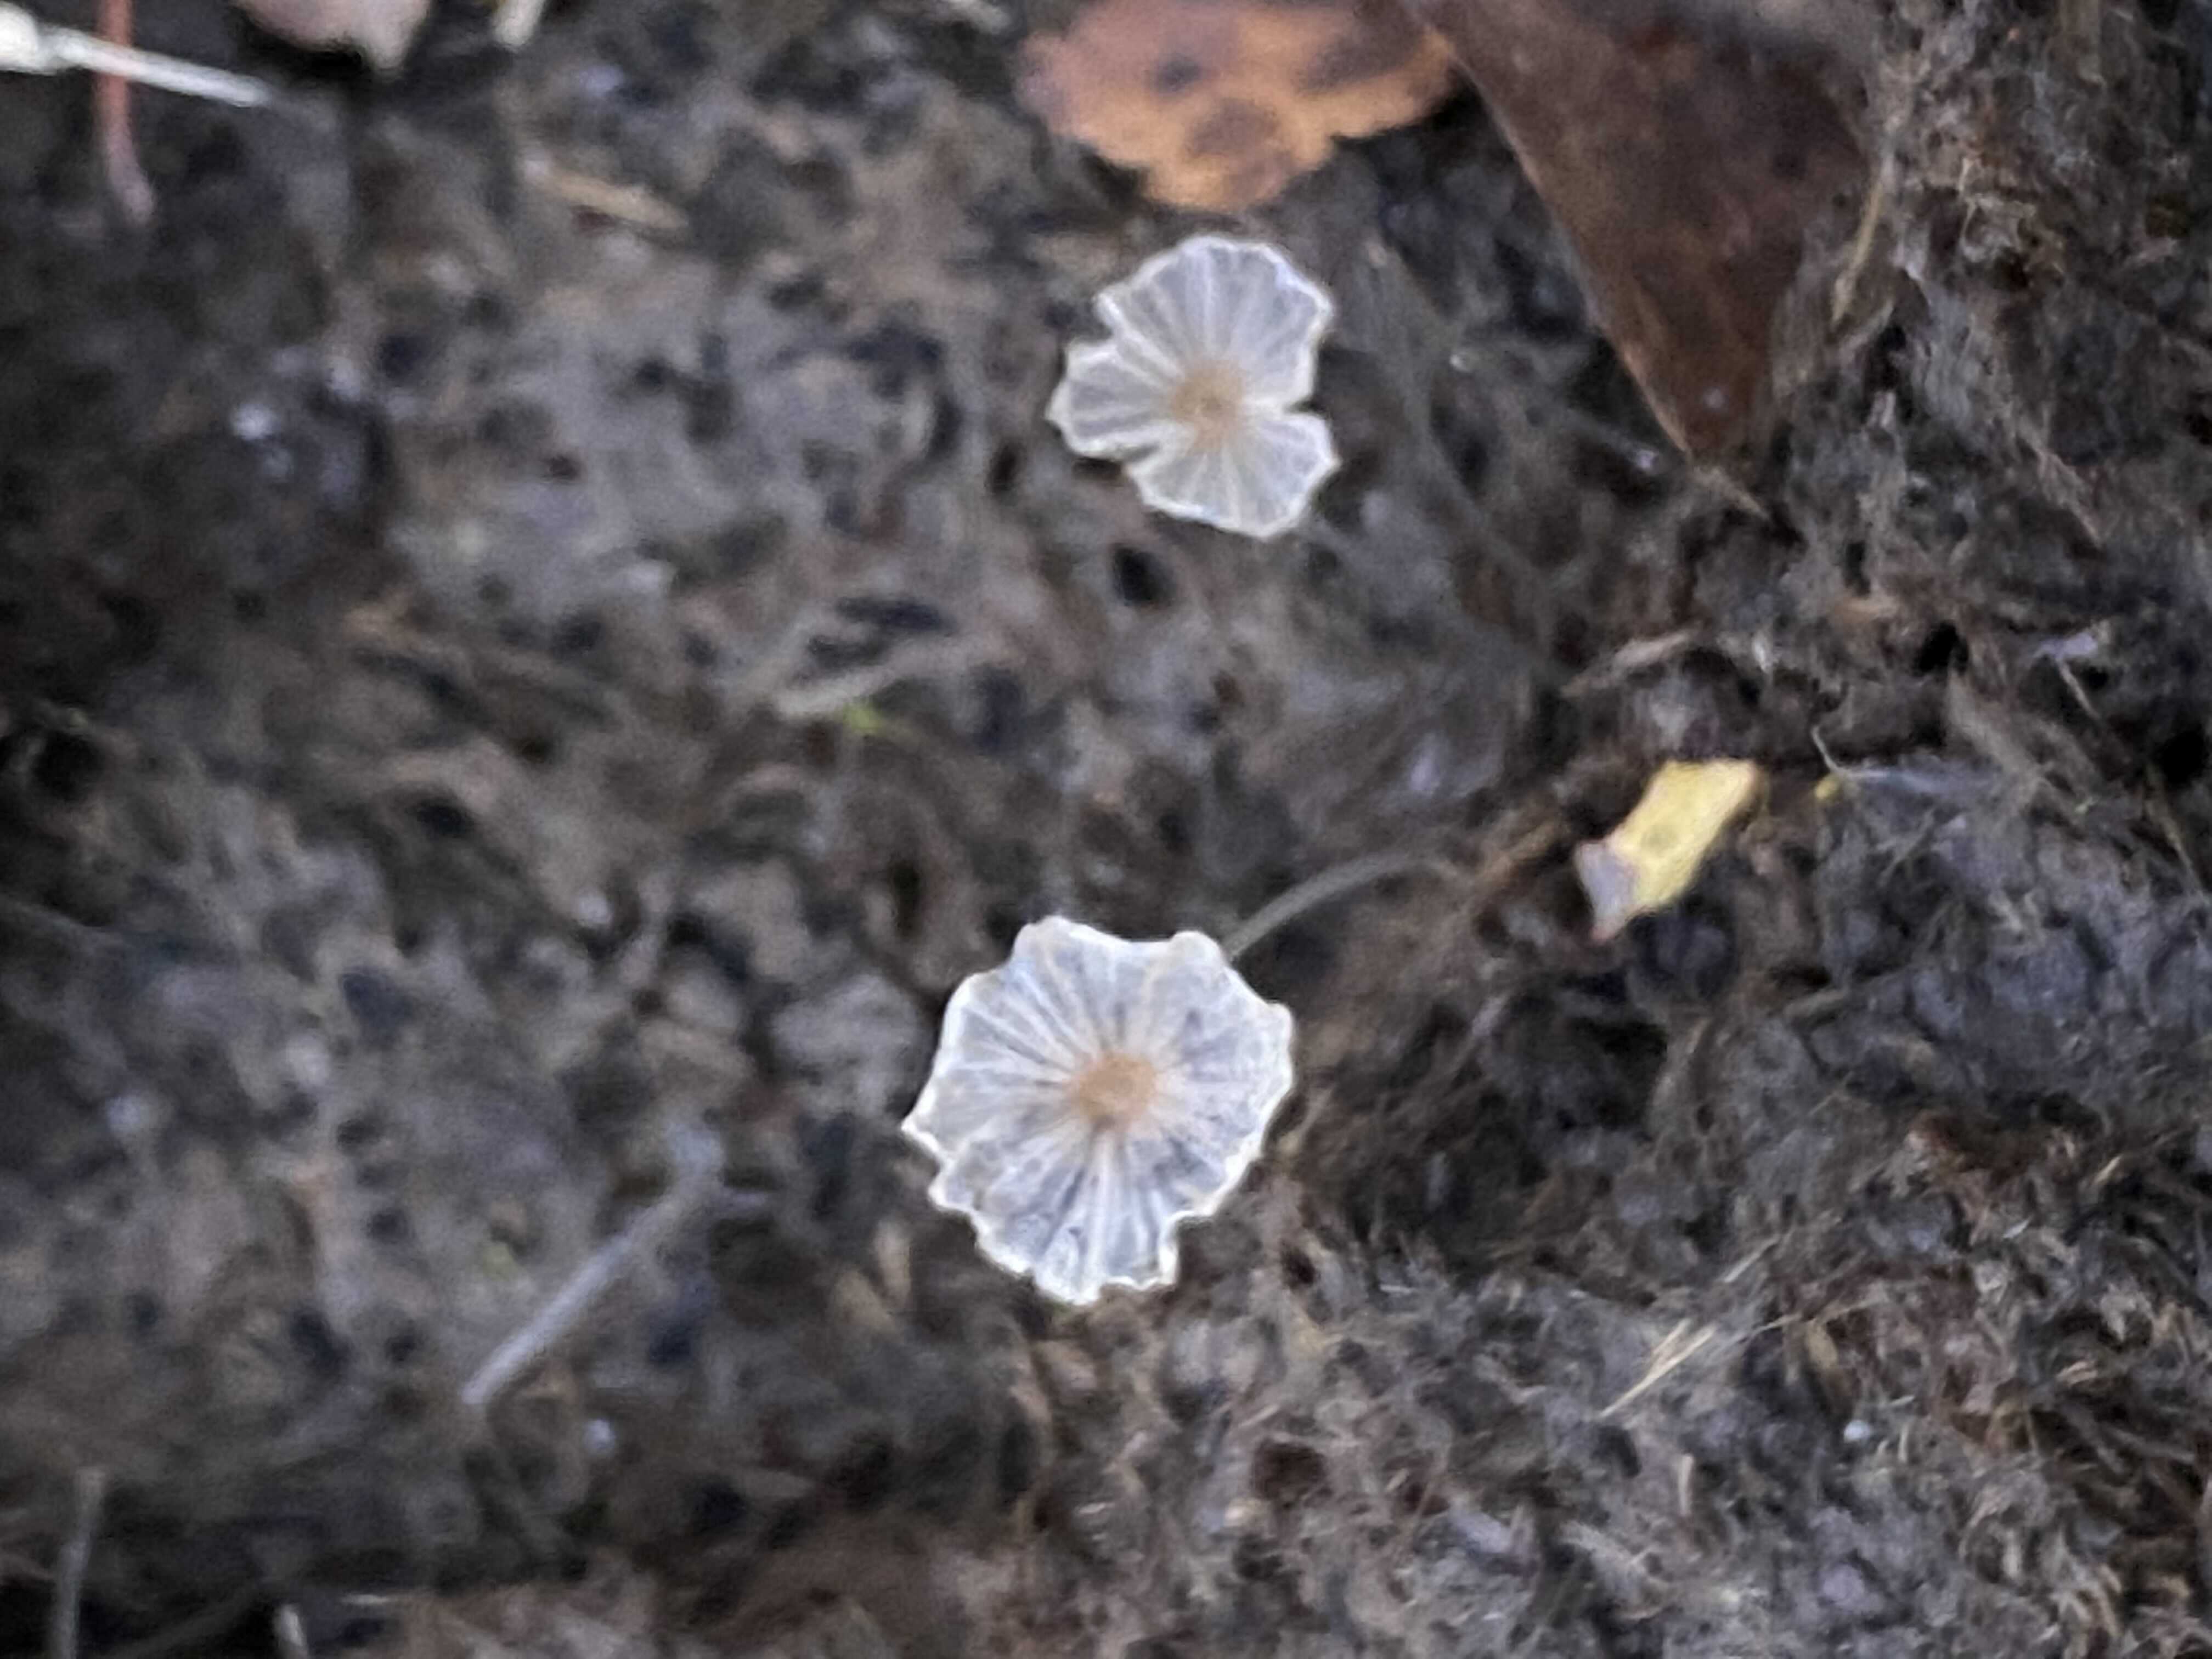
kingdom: Fungi
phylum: Basidiomycota
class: Agaricomycetes
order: Agaricales
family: Psathyrellaceae
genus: Parasola
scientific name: Parasola misera
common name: lillebitte hjulhat
